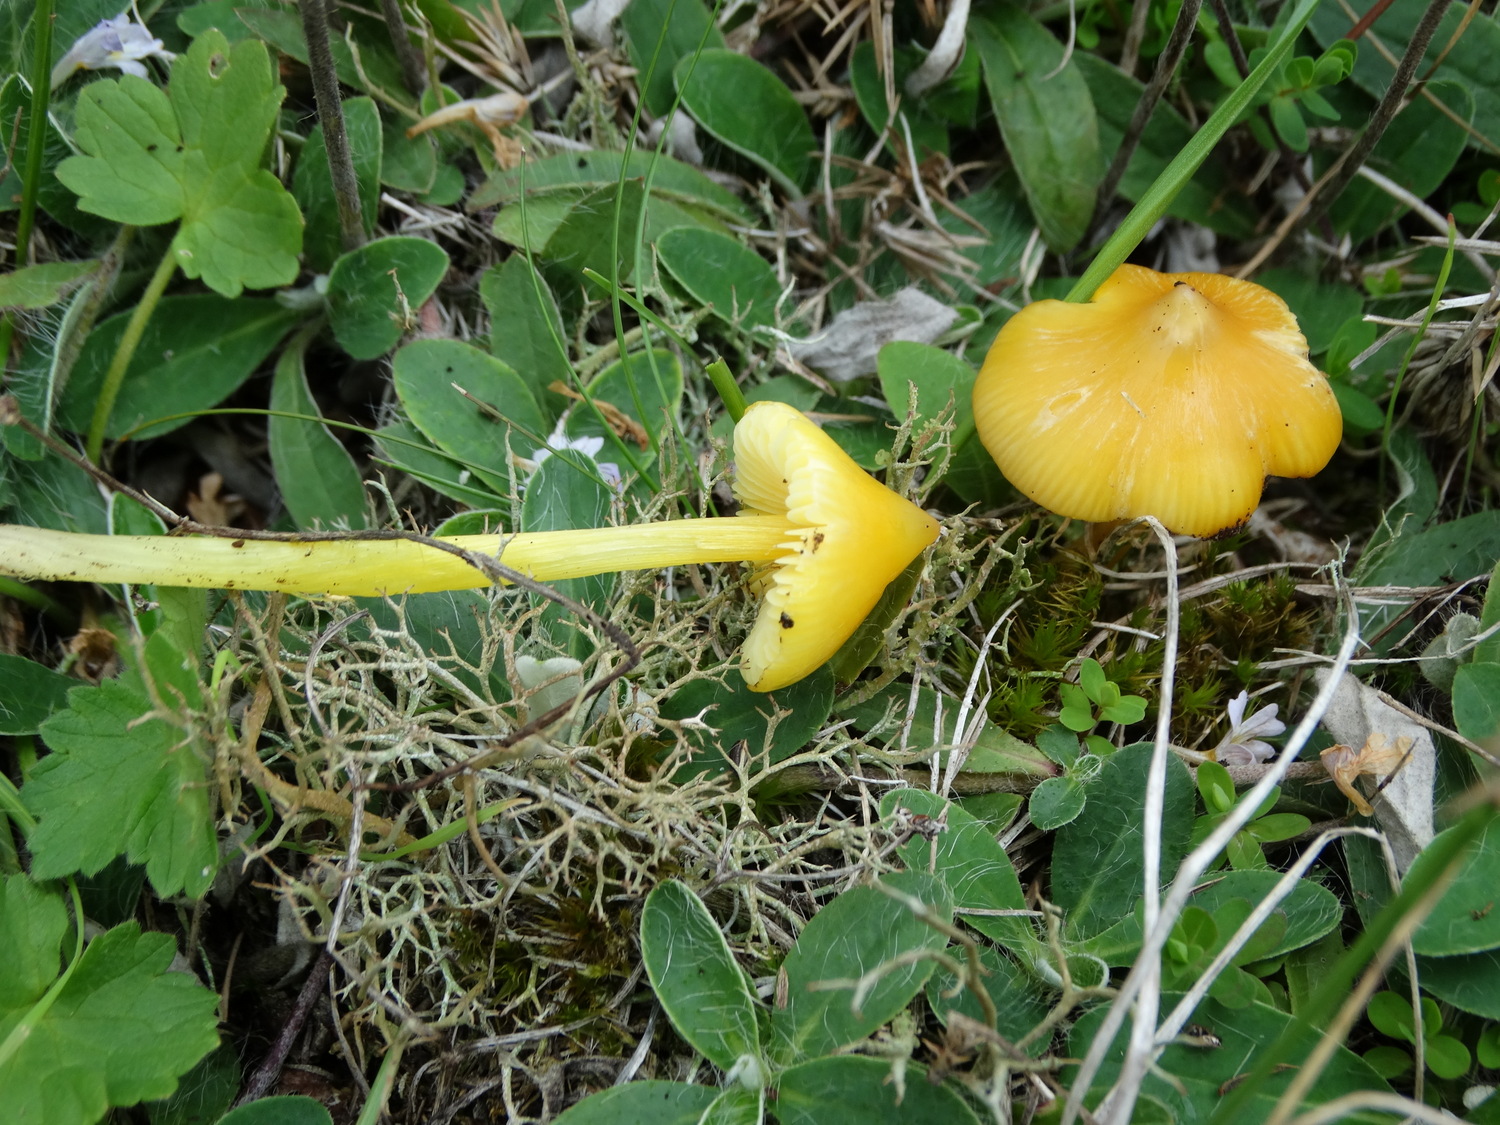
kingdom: Fungi
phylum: Basidiomycota
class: Agaricomycetes
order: Agaricales
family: Hygrophoraceae
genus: Hygrocybe
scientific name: Hygrocybe acutoconica
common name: spidspuklet vokshat
